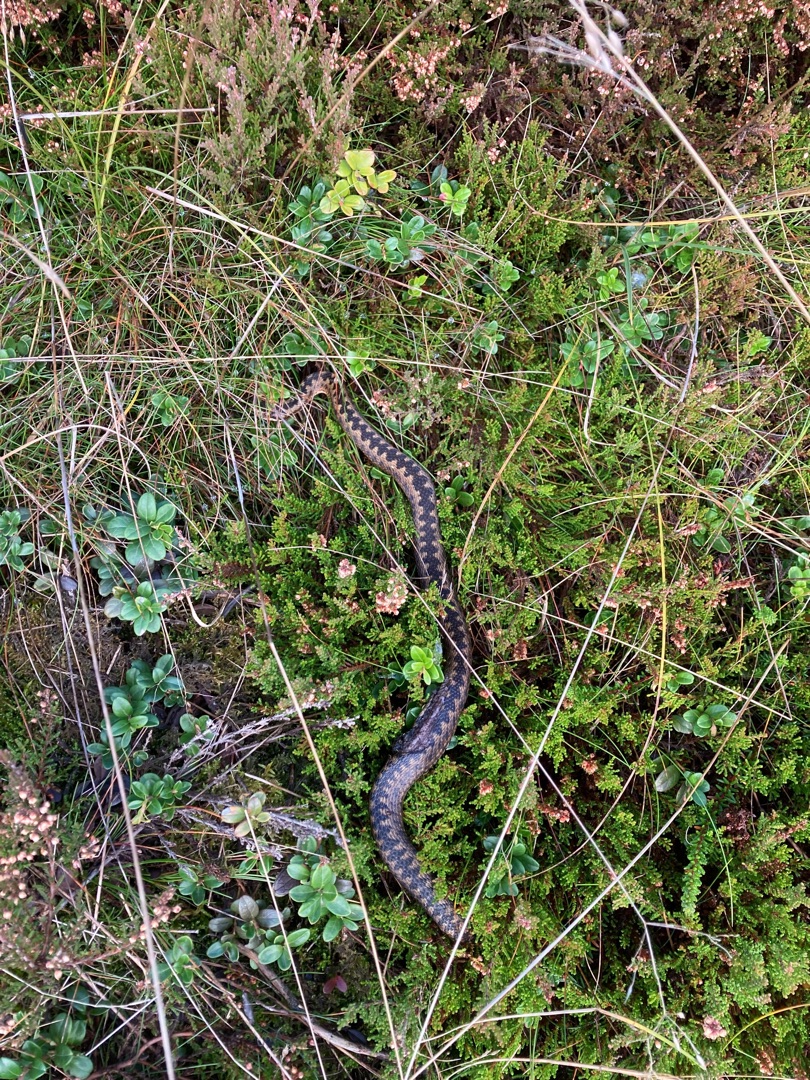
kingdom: Animalia
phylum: Chordata
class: Squamata
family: Viperidae
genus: Vipera
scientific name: Vipera berus
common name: Hugorm
